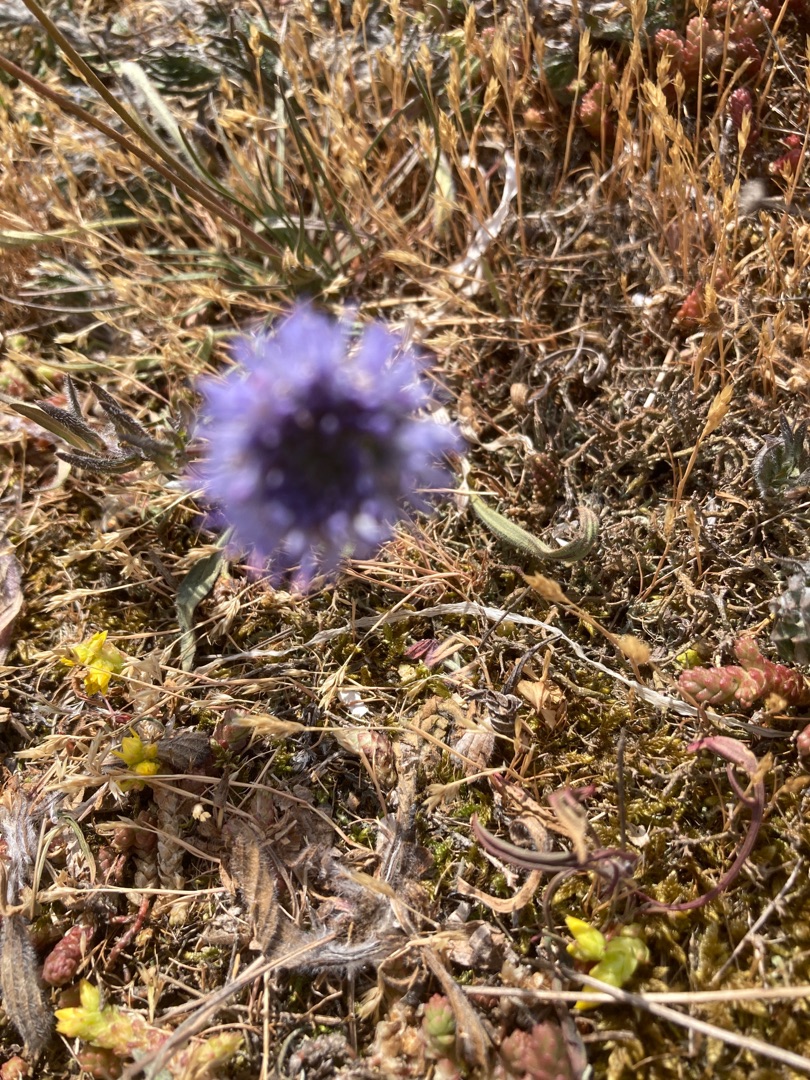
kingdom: Plantae
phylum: Tracheophyta
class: Magnoliopsida
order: Asterales
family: Campanulaceae
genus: Jasione
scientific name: Jasione montana
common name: Blåmunke
